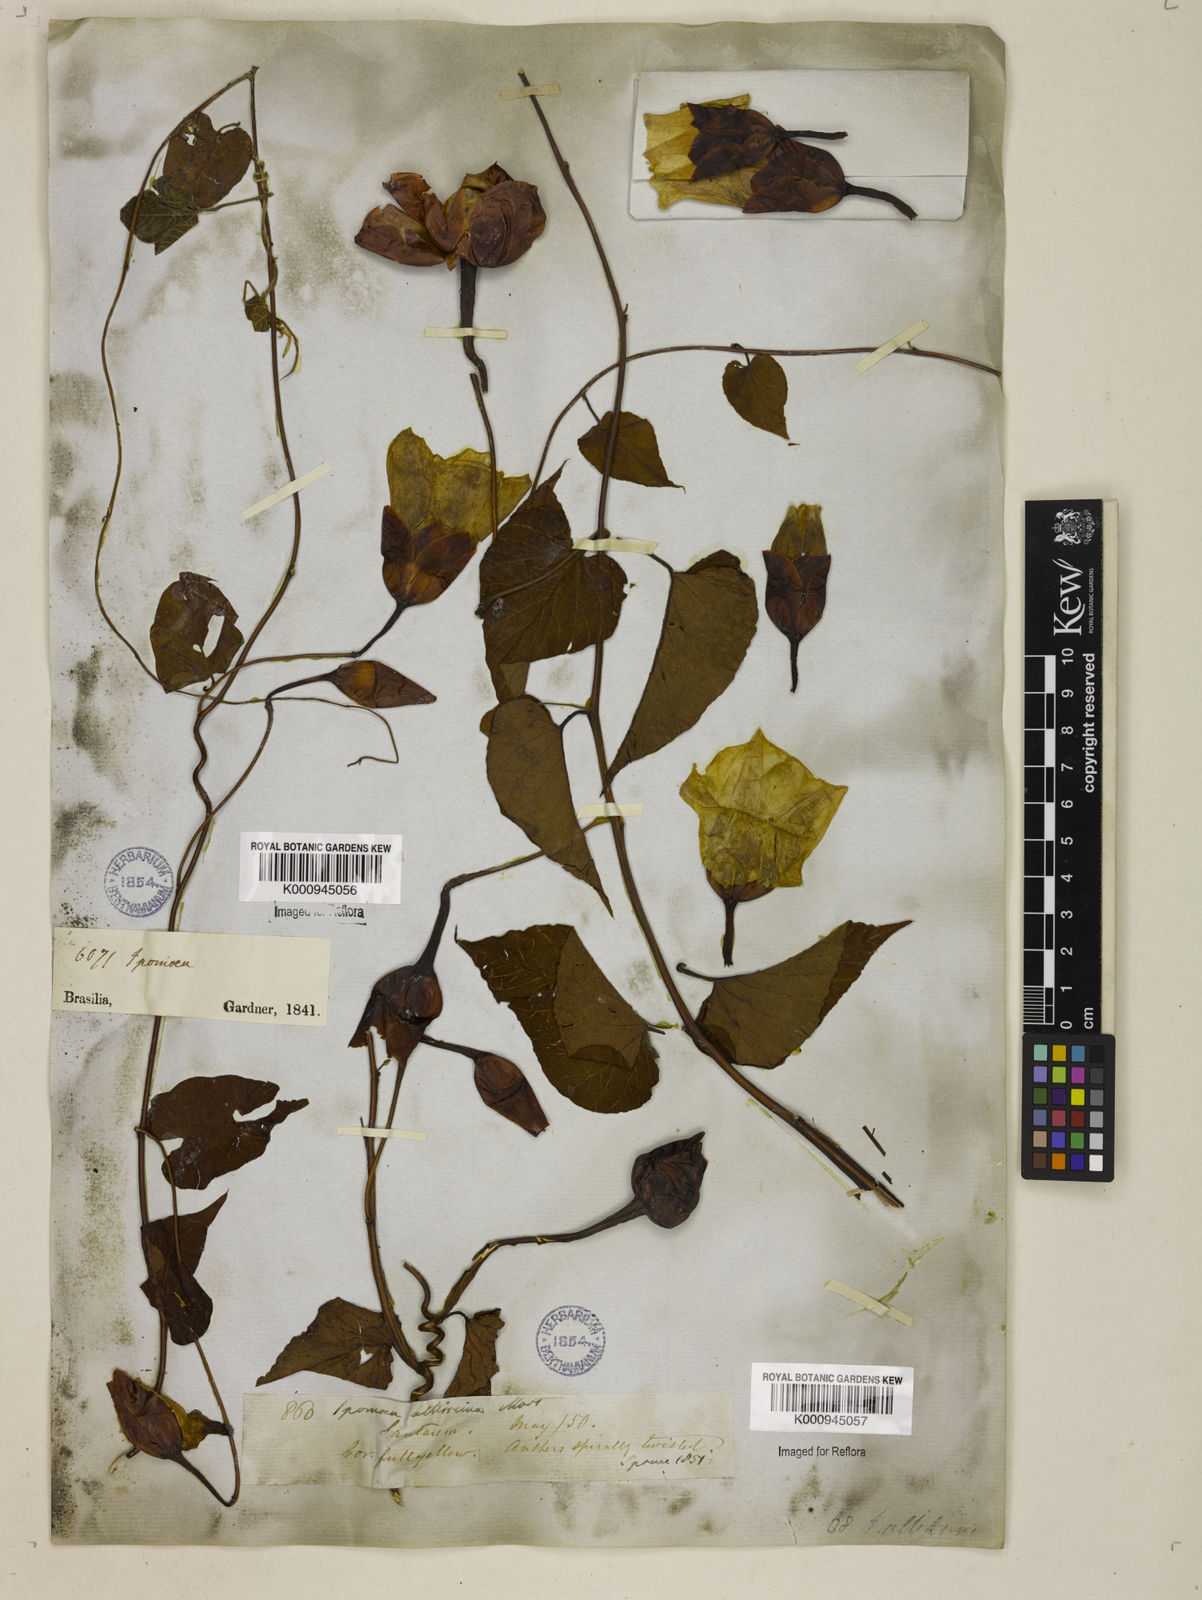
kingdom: Plantae
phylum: Tracheophyta
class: Magnoliopsida
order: Solanales
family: Convolvulaceae
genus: Operculina
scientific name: Operculina hamiltonii
